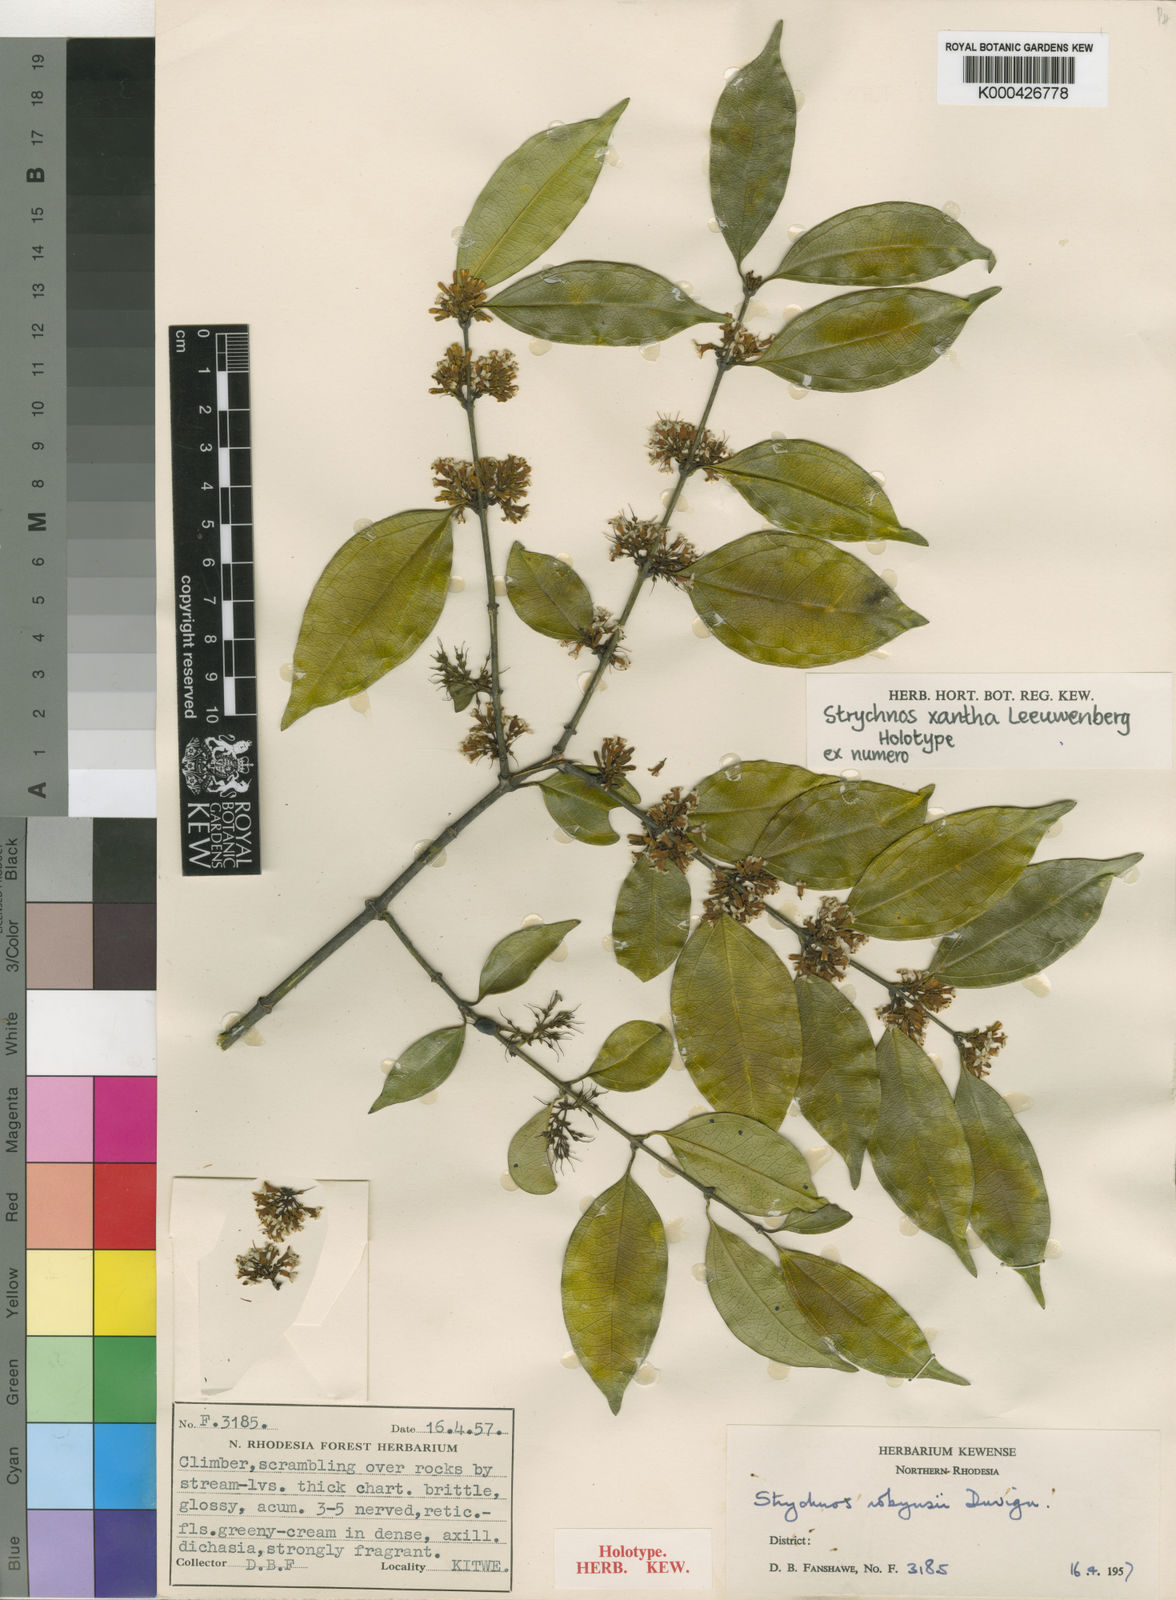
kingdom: Plantae
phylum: Tracheophyta
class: Magnoliopsida
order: Gentianales
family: Loganiaceae
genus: Strychnos
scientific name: Strychnos xantha
